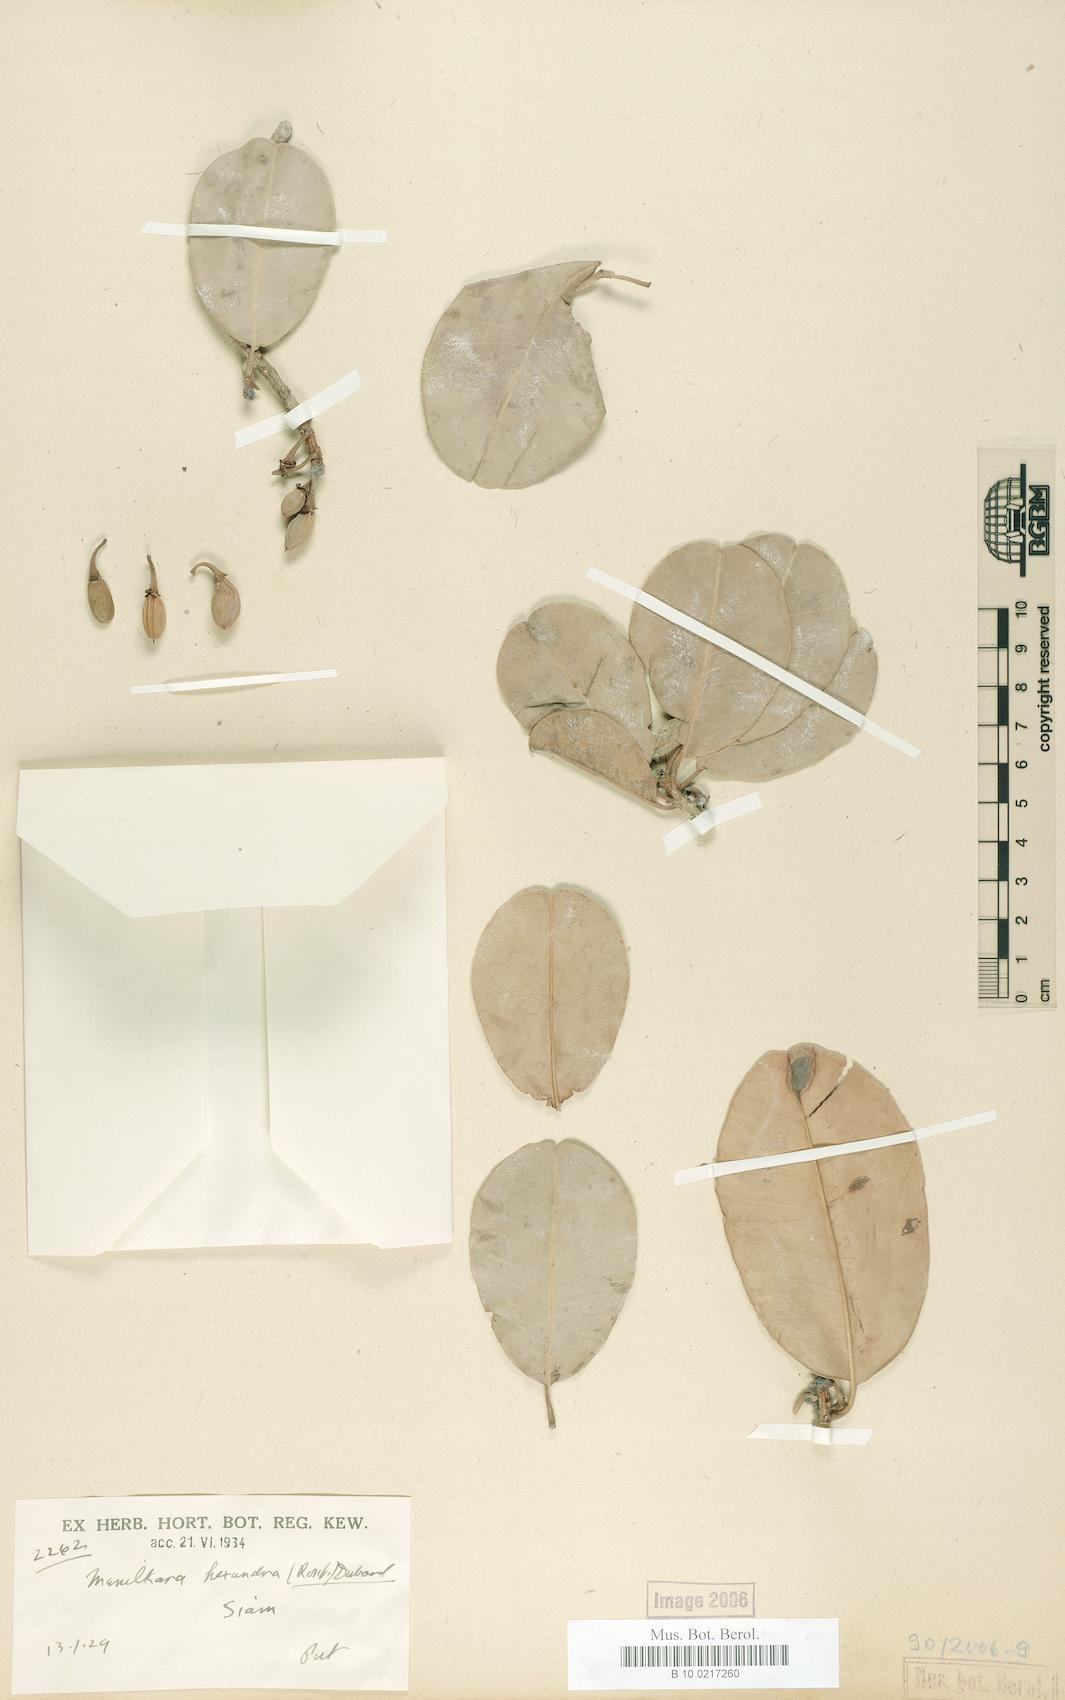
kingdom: Plantae
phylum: Tracheophyta
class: Magnoliopsida
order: Ericales
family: Sapotaceae
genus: Manilkara
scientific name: Manilkara hexandra
